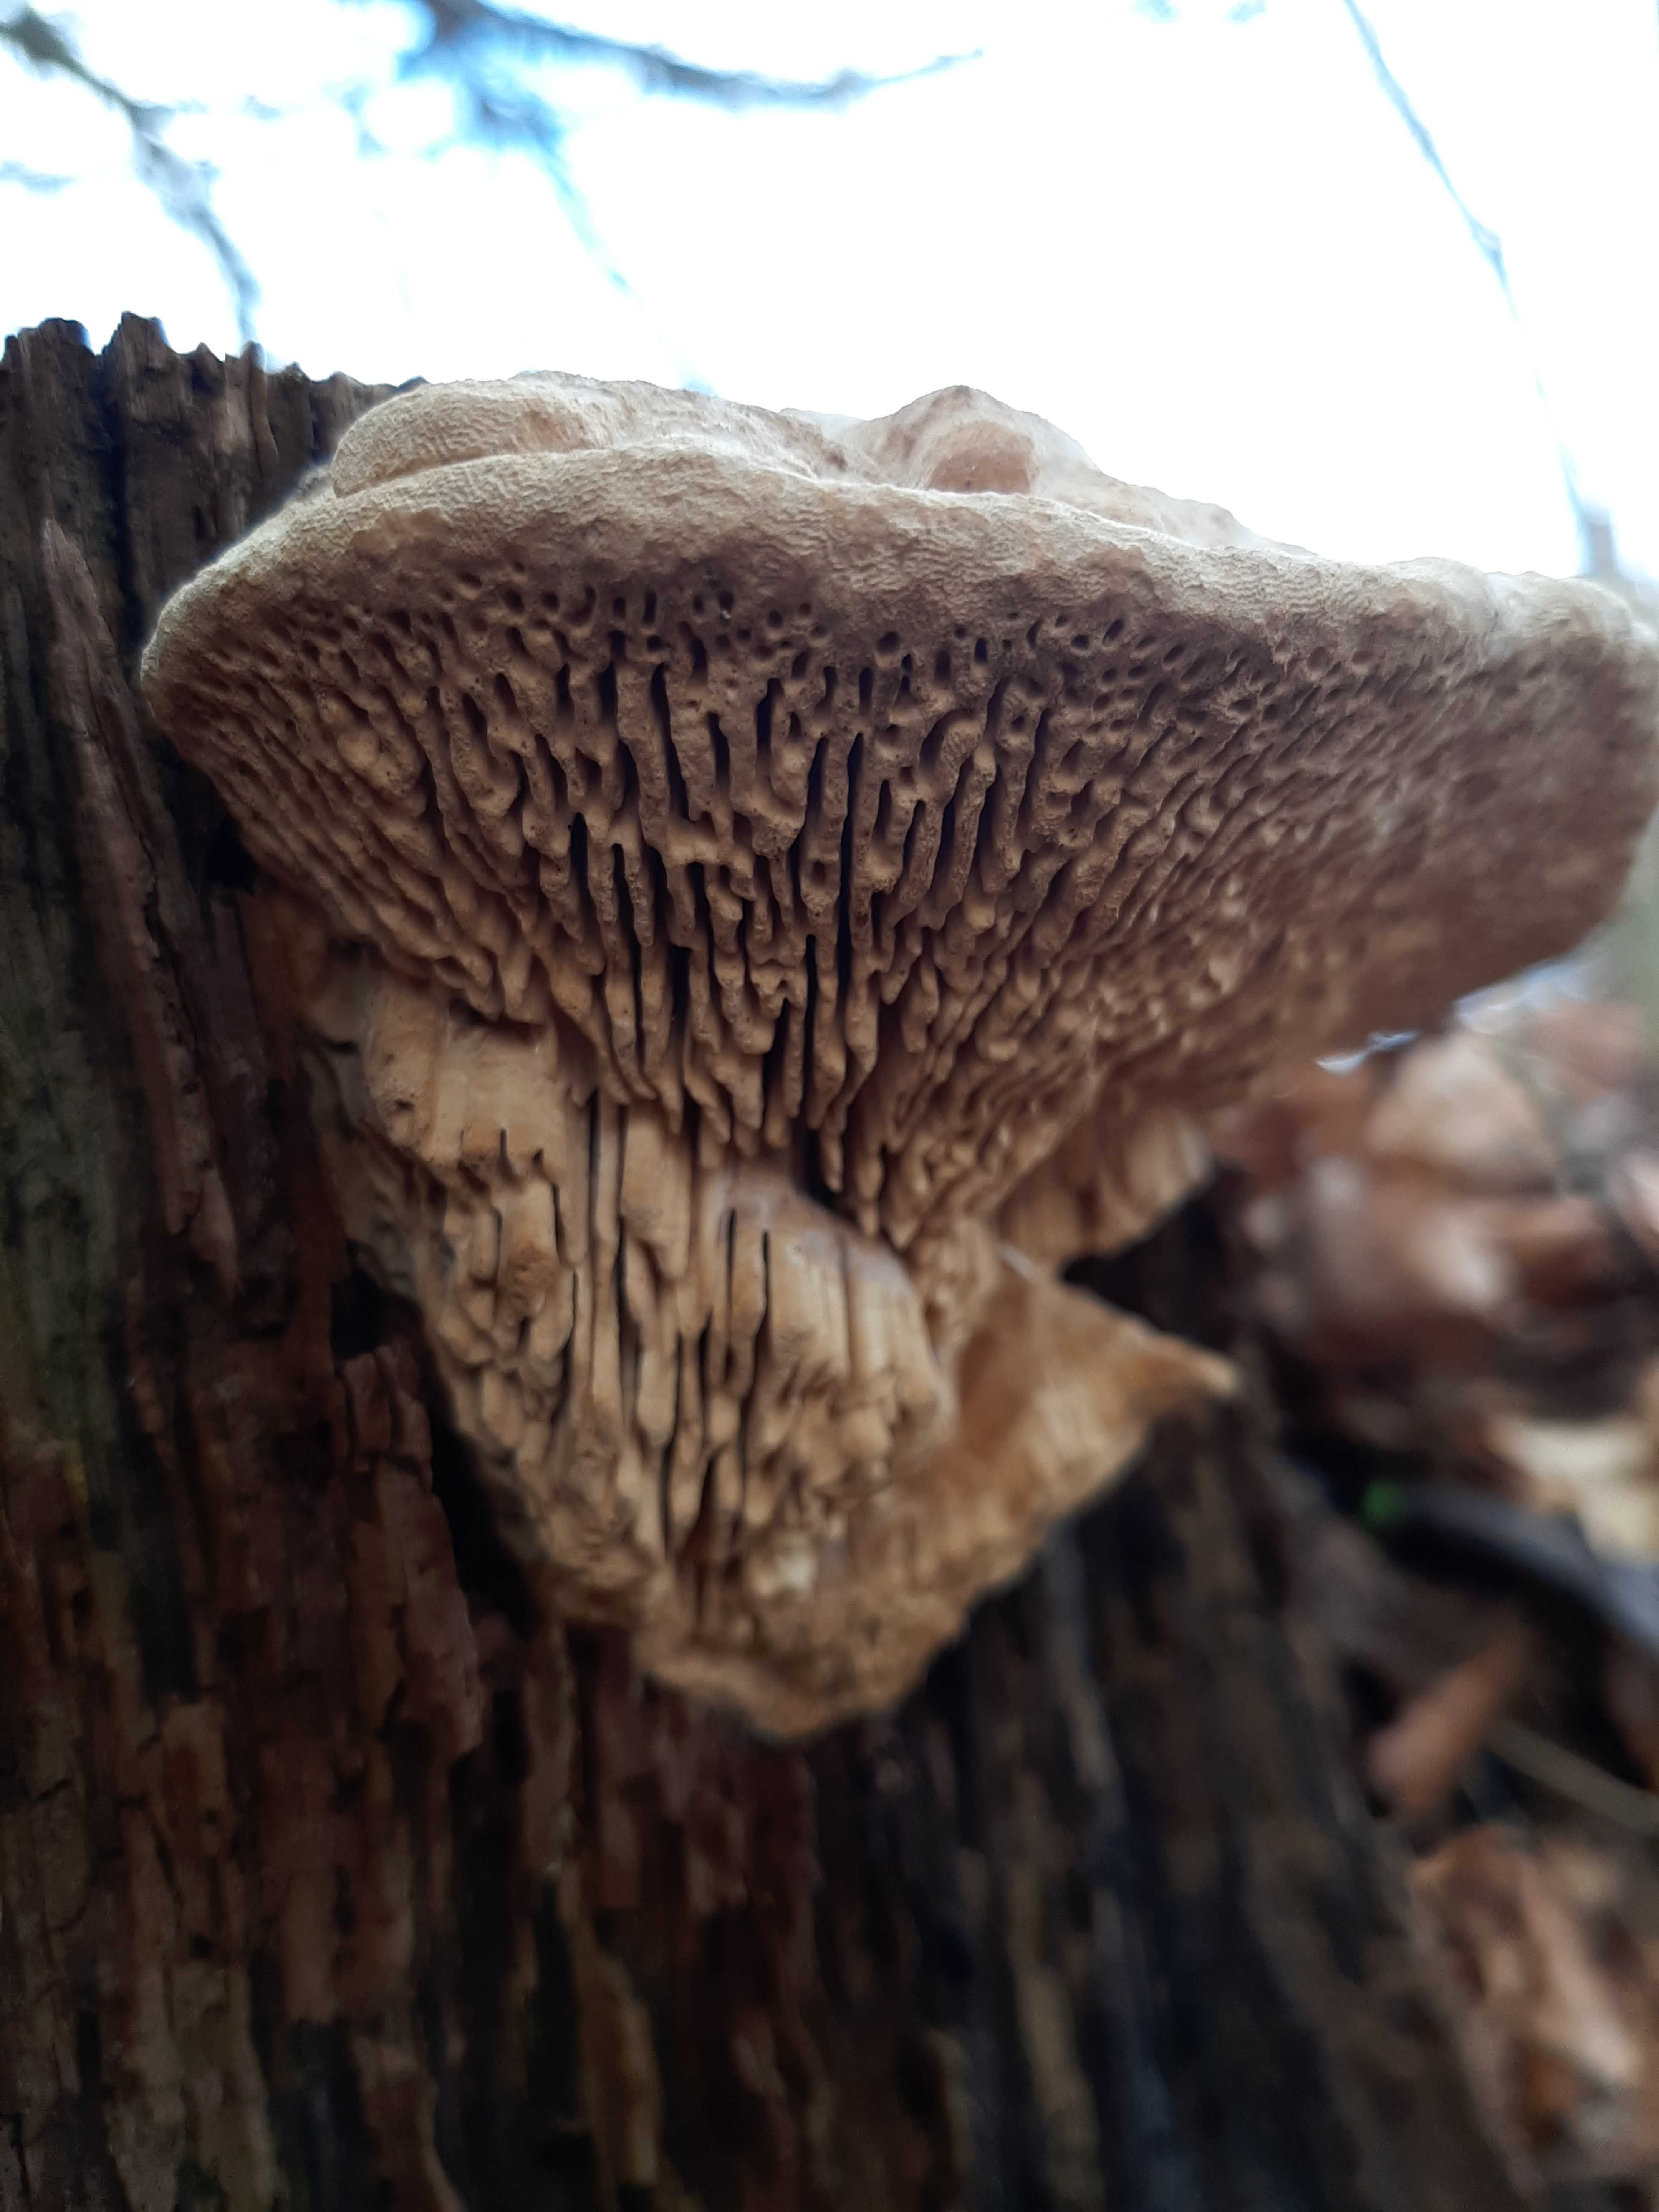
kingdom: Fungi
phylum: Basidiomycota
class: Agaricomycetes
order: Polyporales
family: Fomitopsidaceae
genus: Daedalea
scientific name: Daedalea quercina
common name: ege-labyrintsvamp
